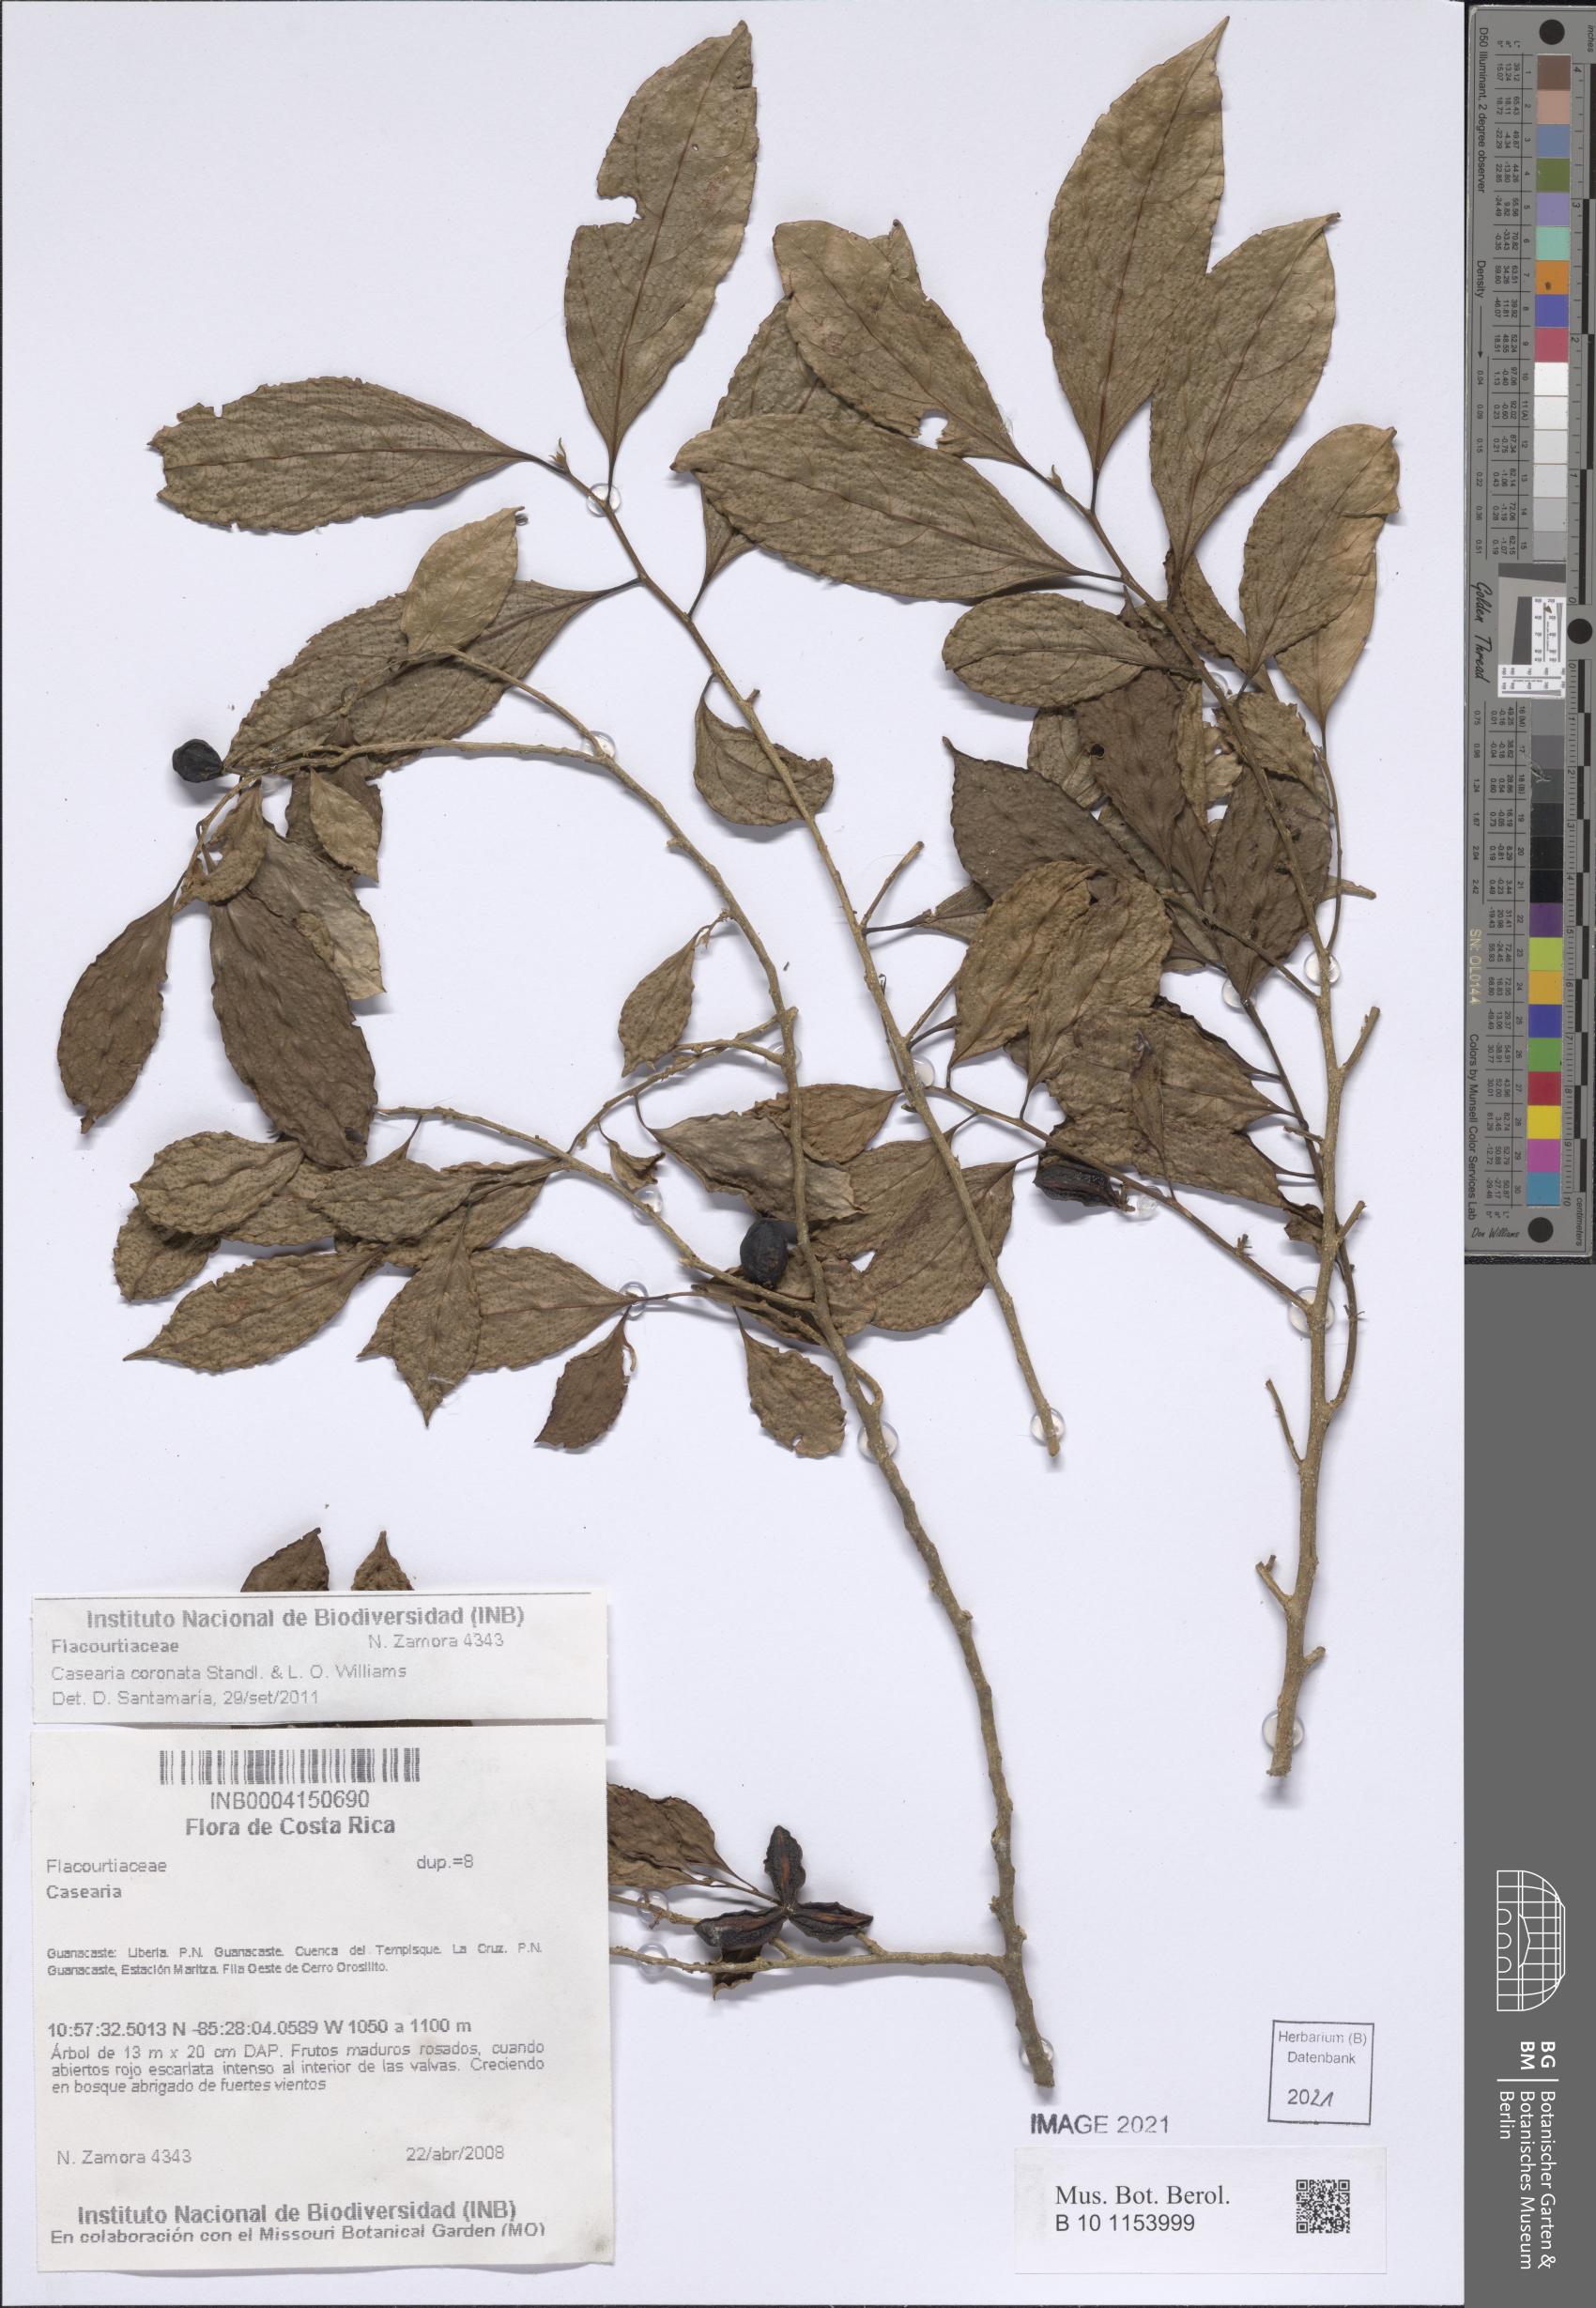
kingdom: Plantae
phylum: Tracheophyta
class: Magnoliopsida
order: Malpighiales
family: Salicaceae
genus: Casearia
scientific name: Casearia coronata
